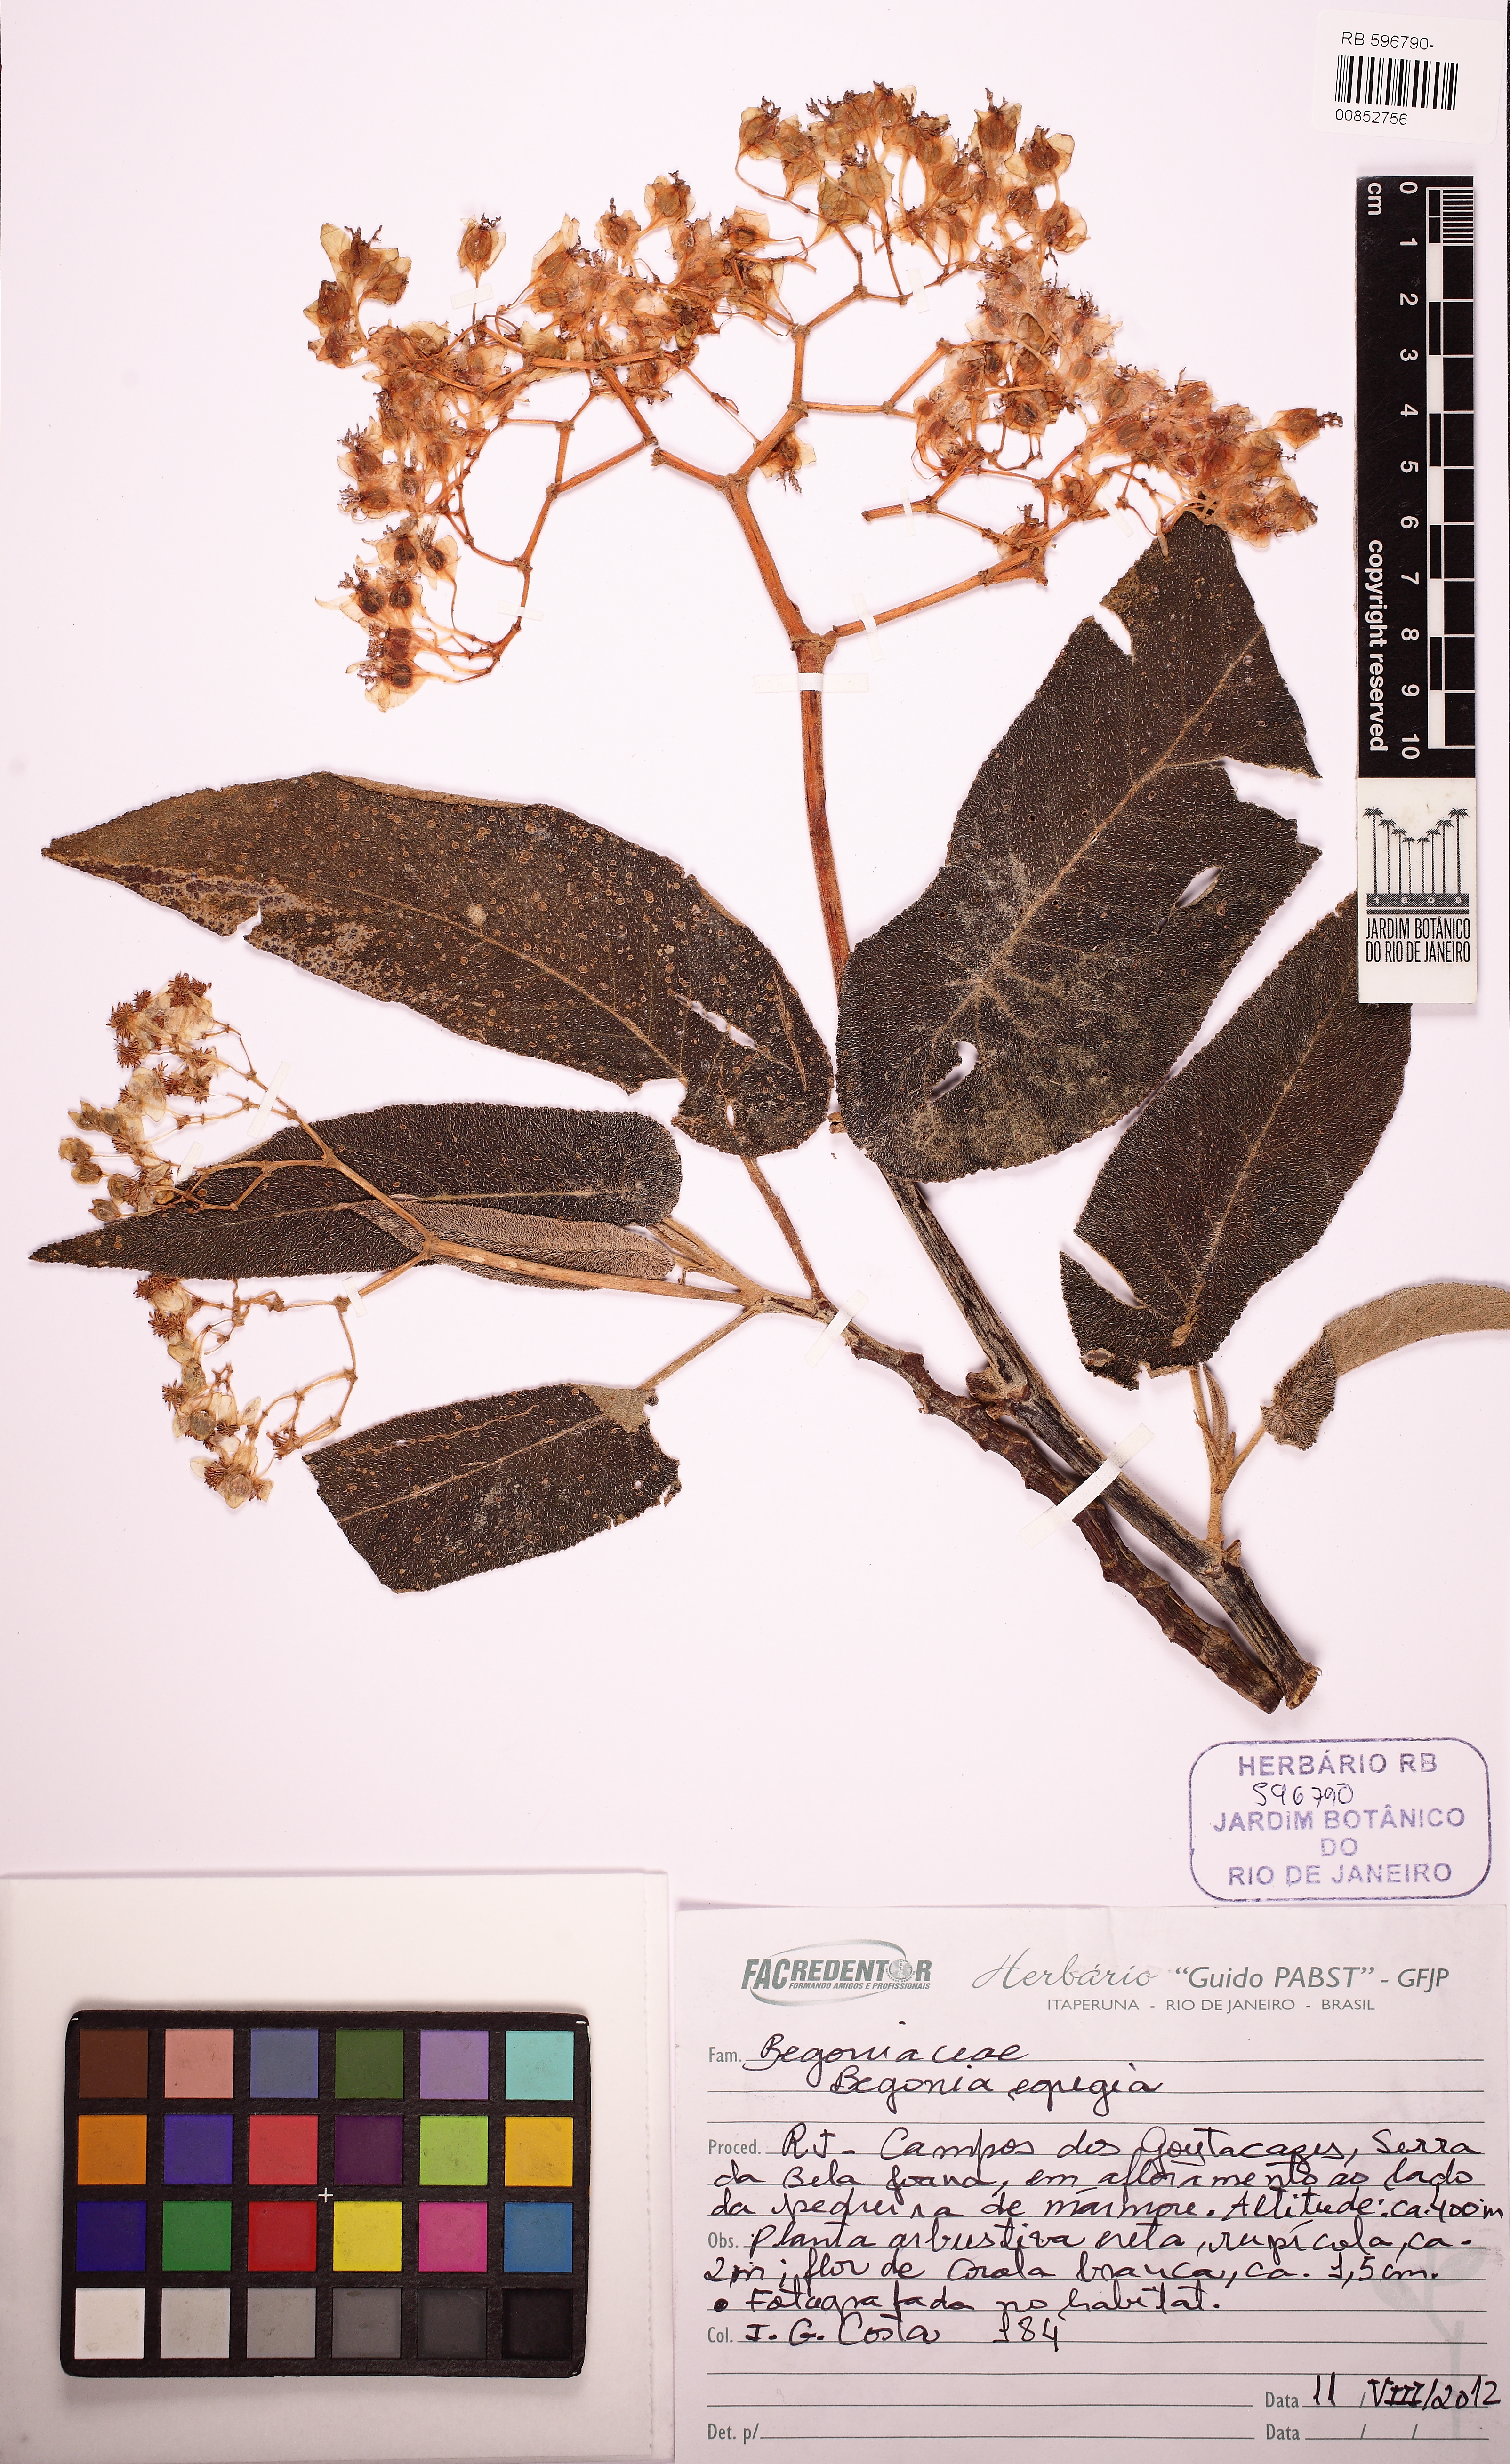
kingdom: Plantae
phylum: Tracheophyta
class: Magnoliopsida
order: Cucurbitales
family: Begoniaceae
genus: Begonia
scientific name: Begonia egregia
